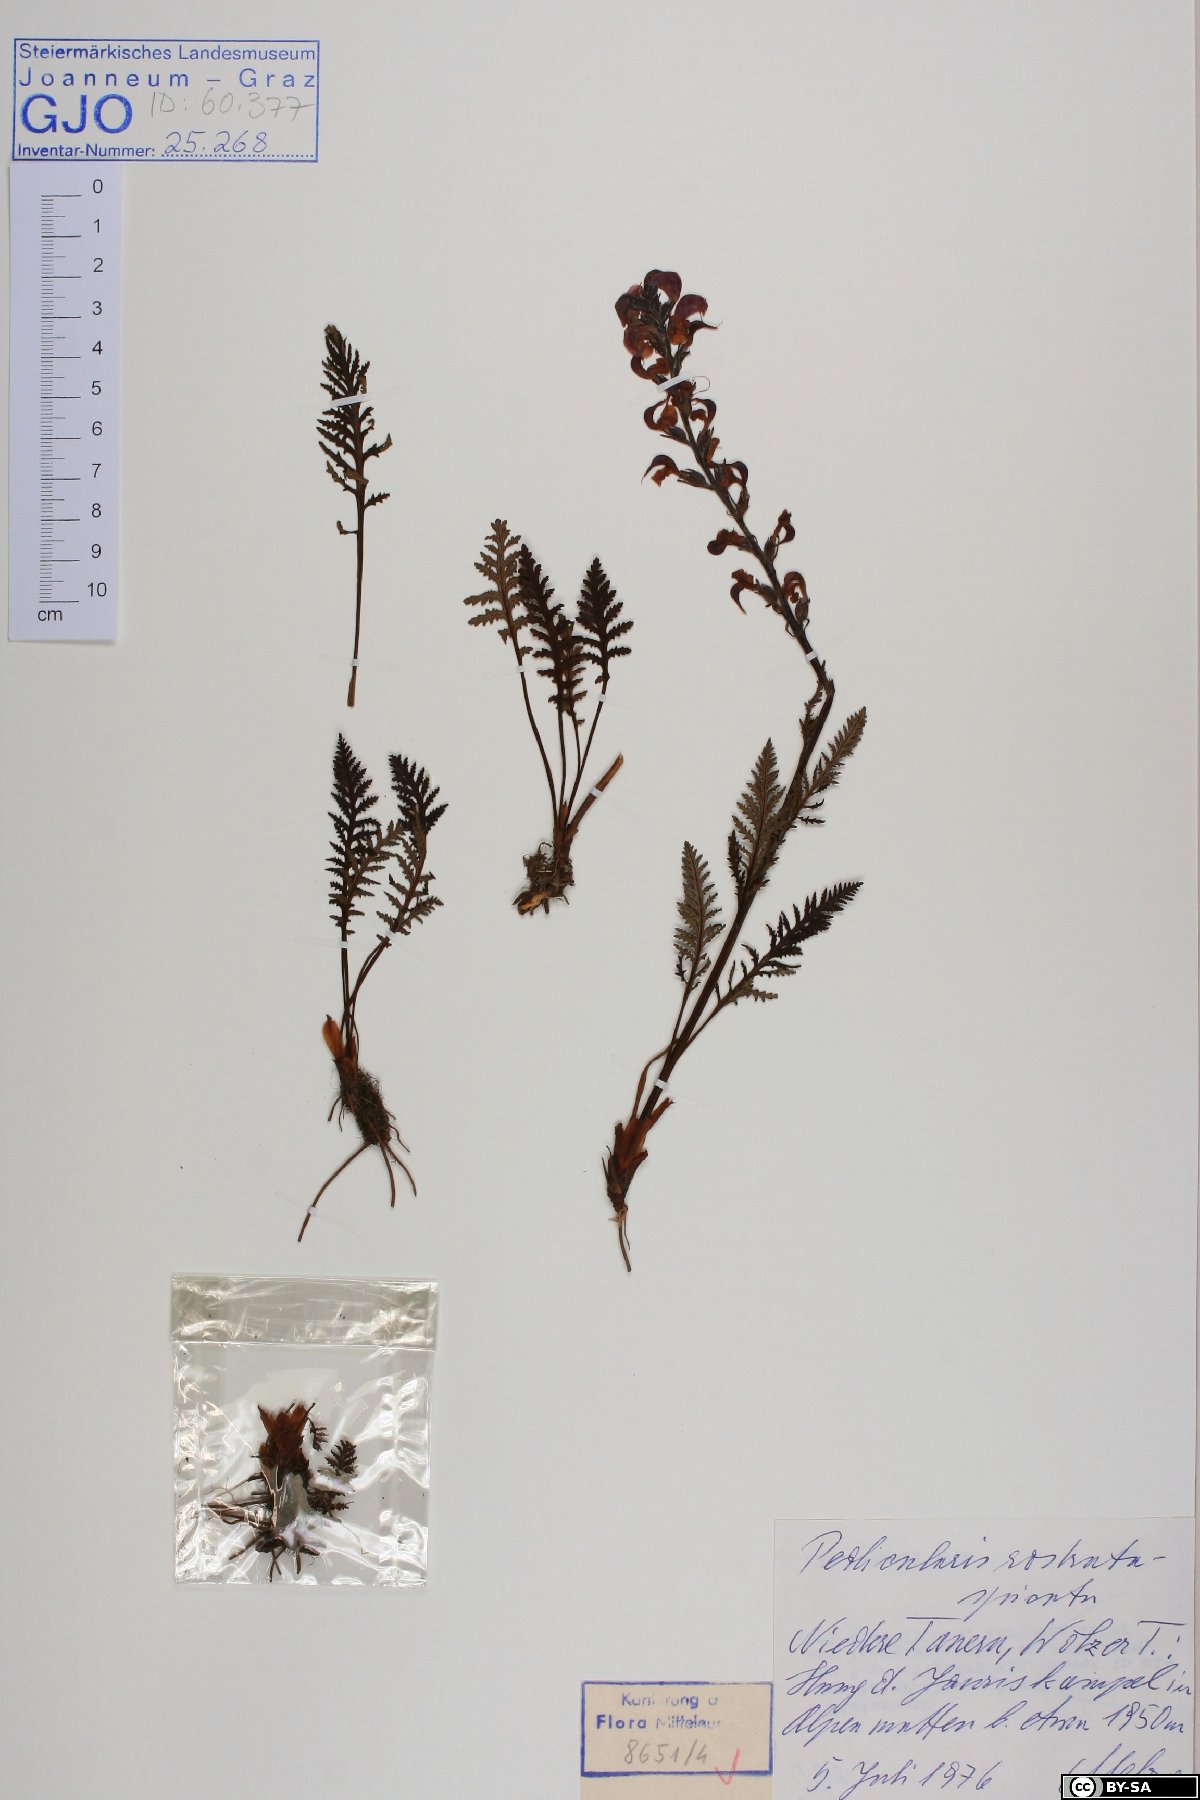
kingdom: Plantae
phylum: Tracheophyta
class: Magnoliopsida
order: Lamiales
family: Orobanchaceae
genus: Pedicularis
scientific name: Pedicularis rostratospicata
